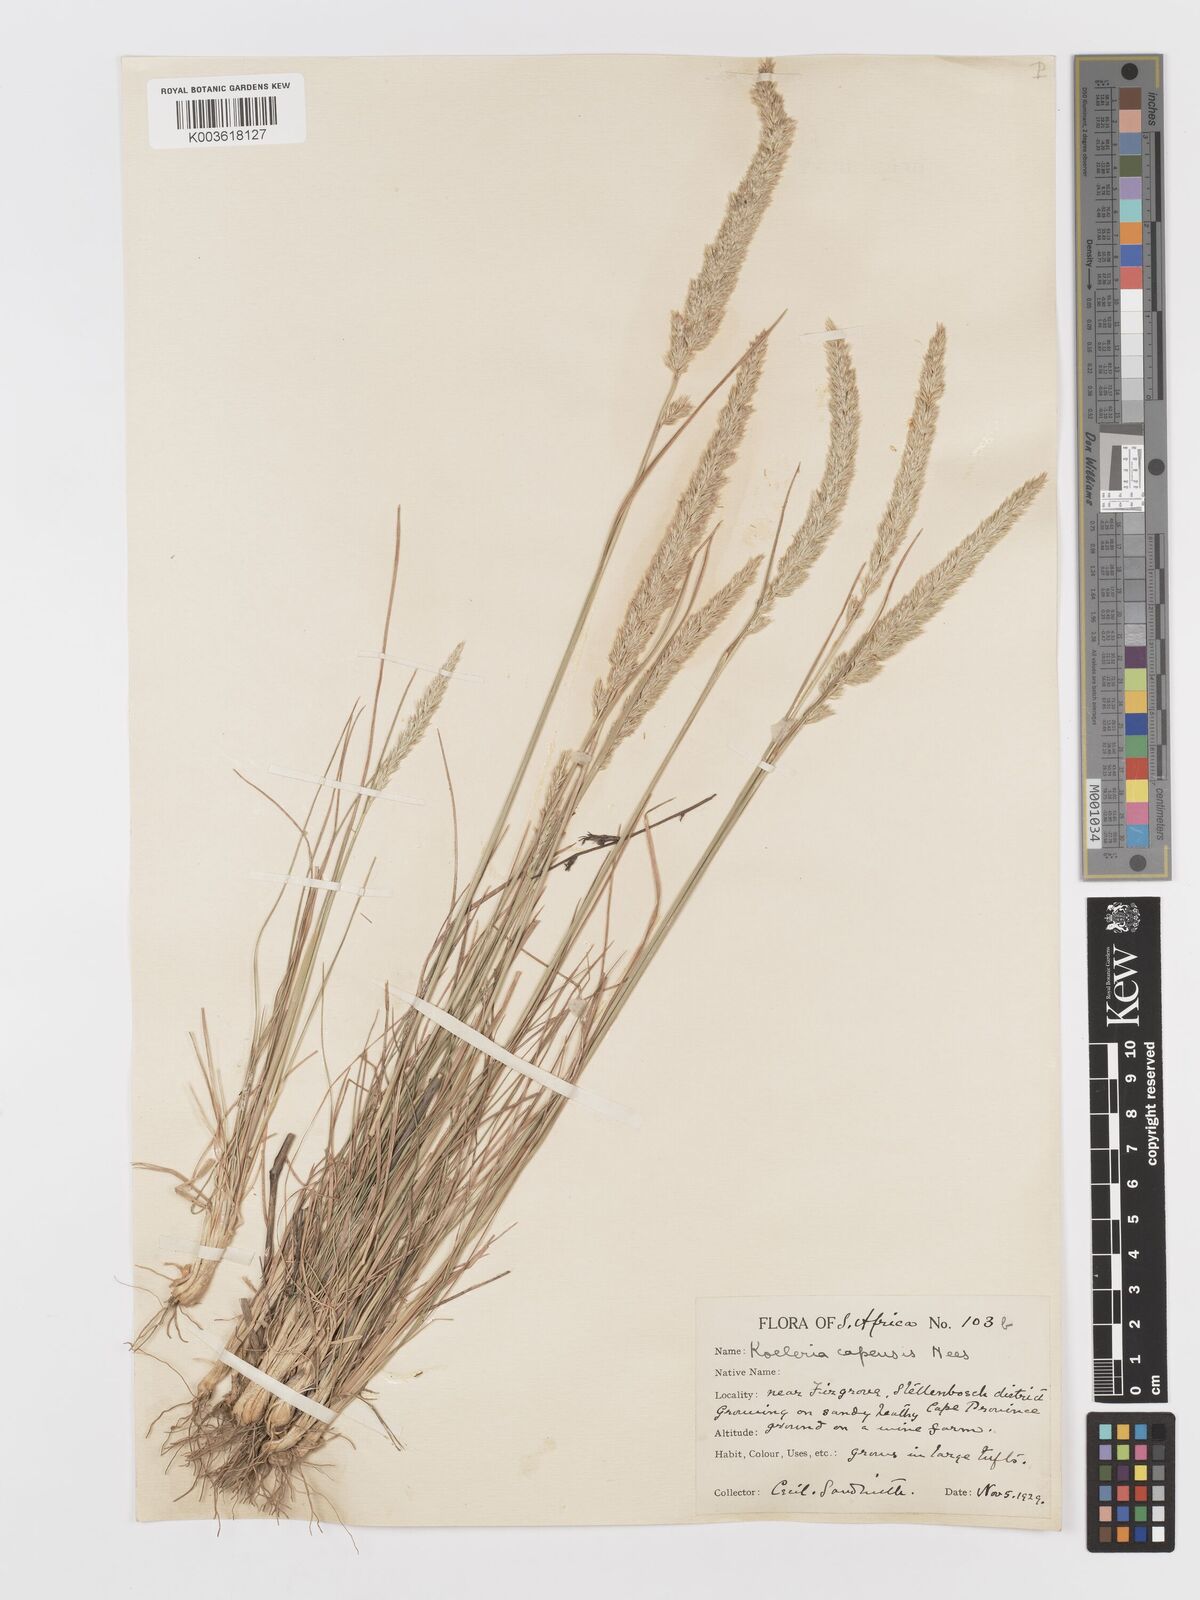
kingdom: Plantae
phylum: Tracheophyta
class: Liliopsida
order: Poales
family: Poaceae
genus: Koeleria
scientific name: Koeleria capensis
